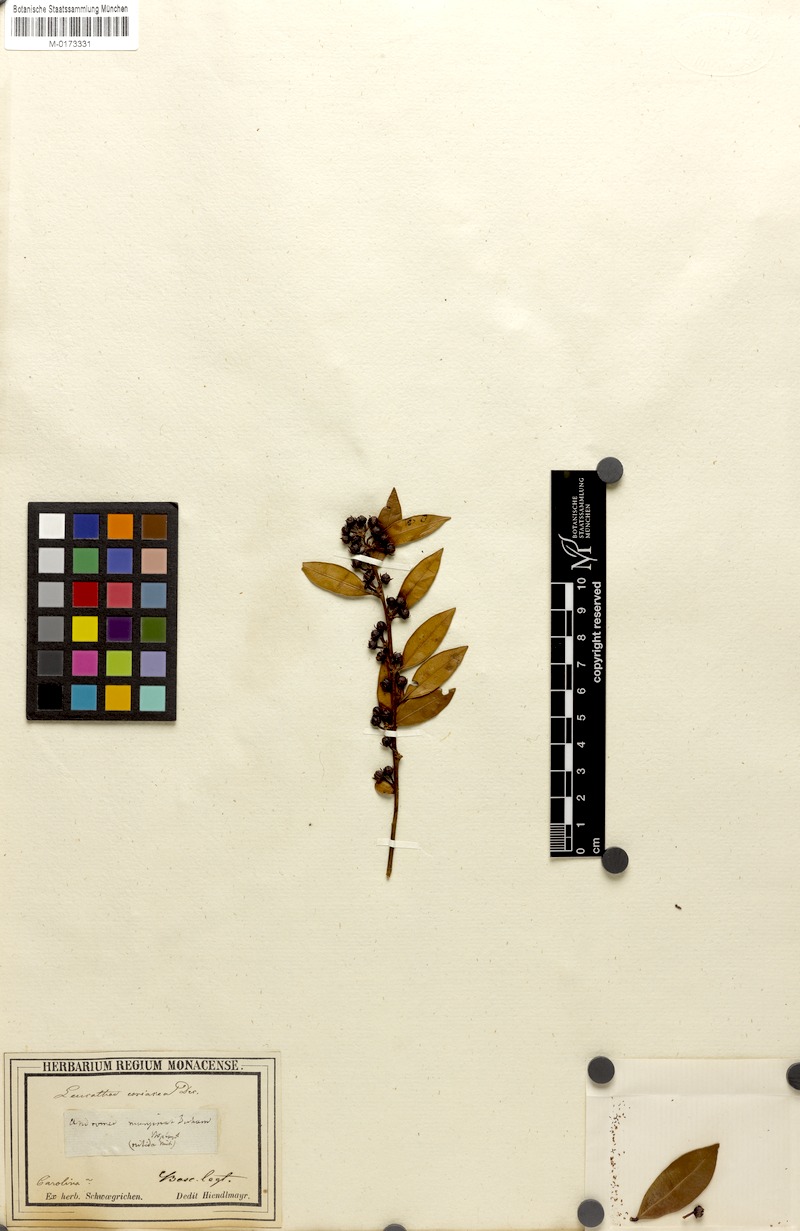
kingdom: Plantae
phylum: Tracheophyta
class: Magnoliopsida
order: Ericales
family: Ericaceae
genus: Lyonia
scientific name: Lyonia lucida
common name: Fetterbush
